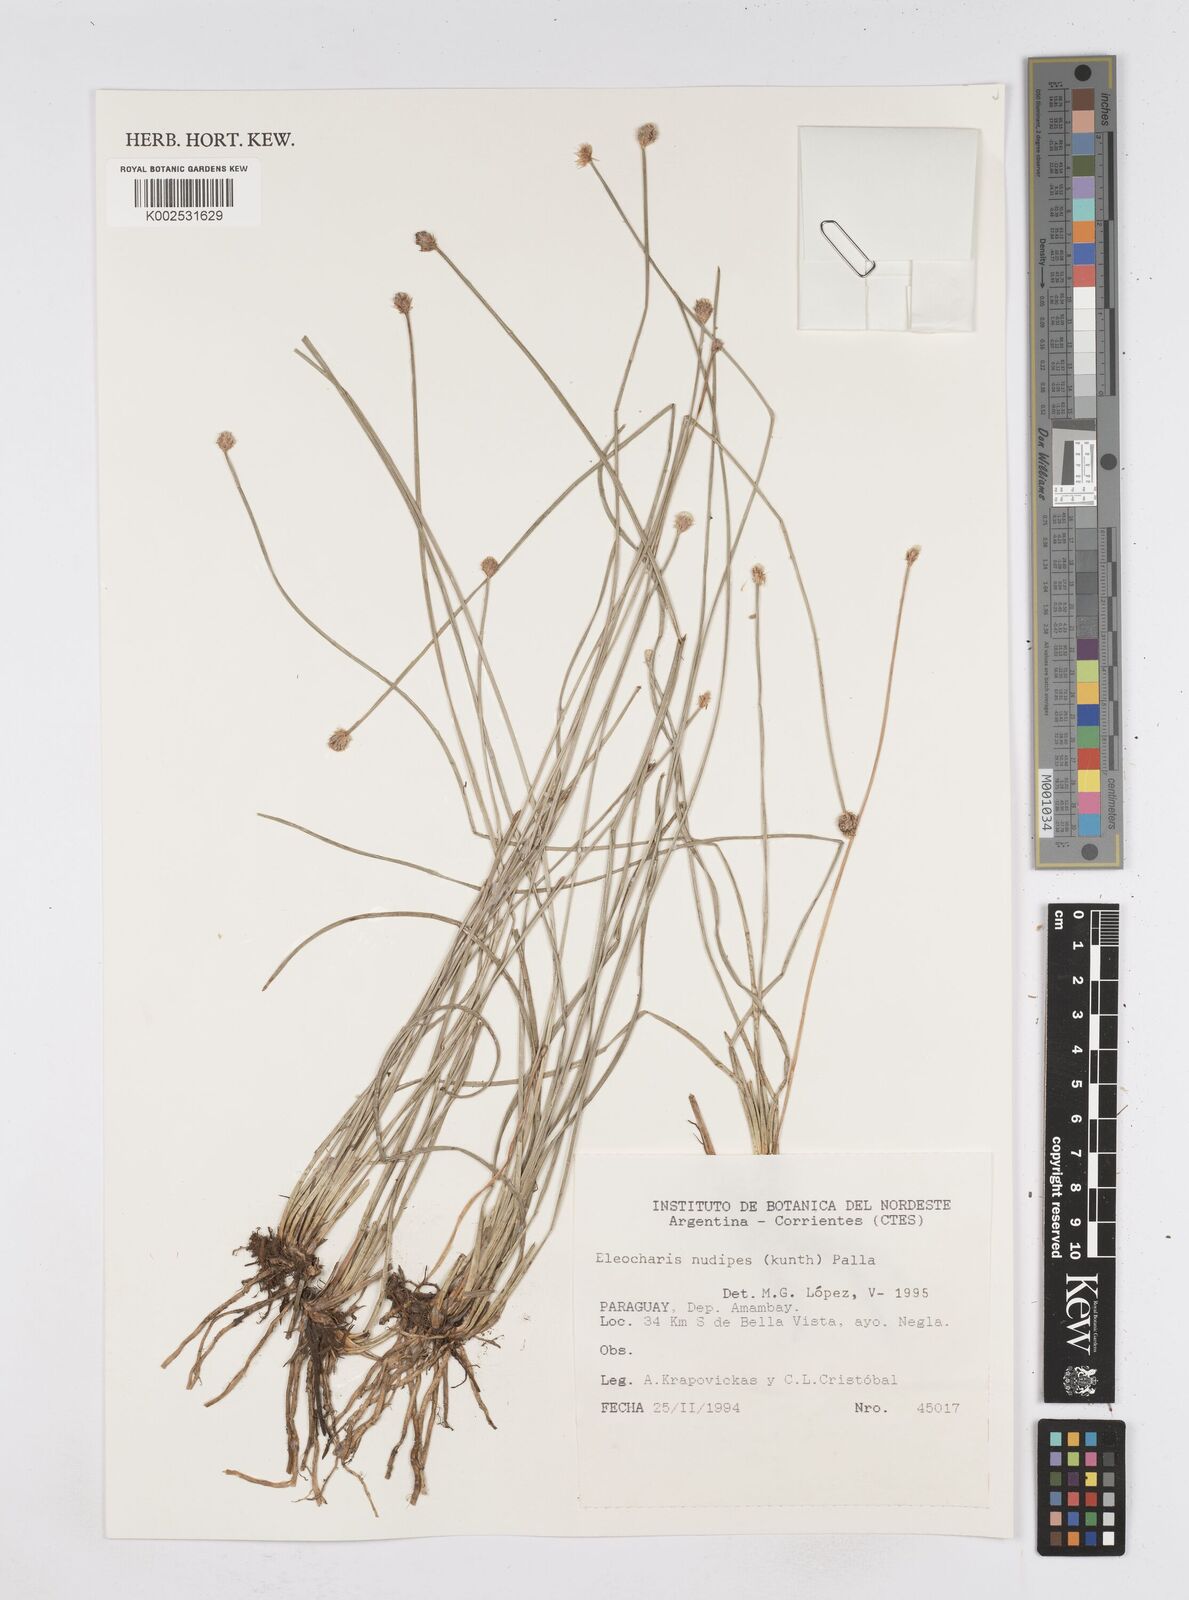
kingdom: Plantae
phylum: Tracheophyta
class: Liliopsida
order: Poales
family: Cyperaceae
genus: Eleocharis
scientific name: Eleocharis nudipes
